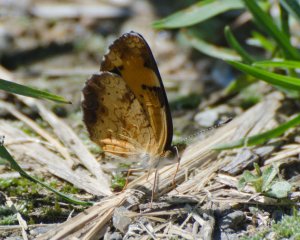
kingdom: Animalia
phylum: Arthropoda
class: Insecta
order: Lepidoptera
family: Nymphalidae
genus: Phyciodes
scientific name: Phyciodes tharos
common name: Northern Crescent
